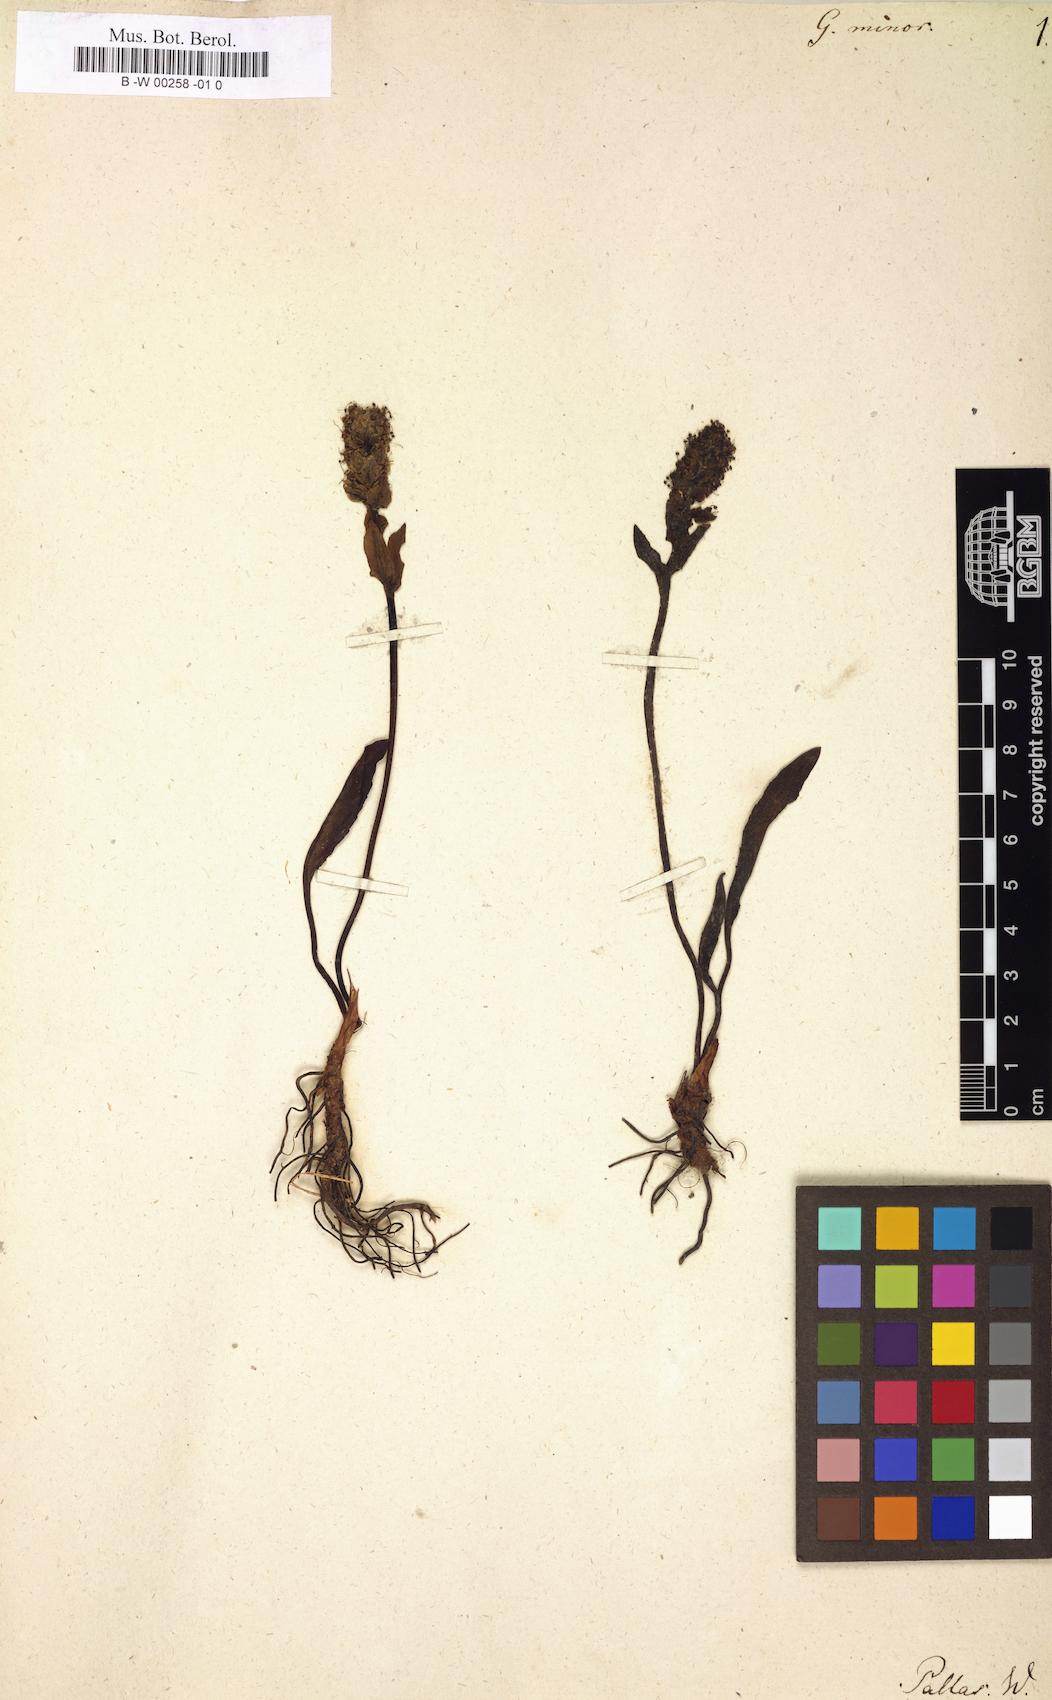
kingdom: Plantae
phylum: Tracheophyta
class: Magnoliopsida
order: Lamiales
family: Plantaginaceae
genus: Lagotis
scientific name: Lagotis glauca
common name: Glaucous weaselsnout
